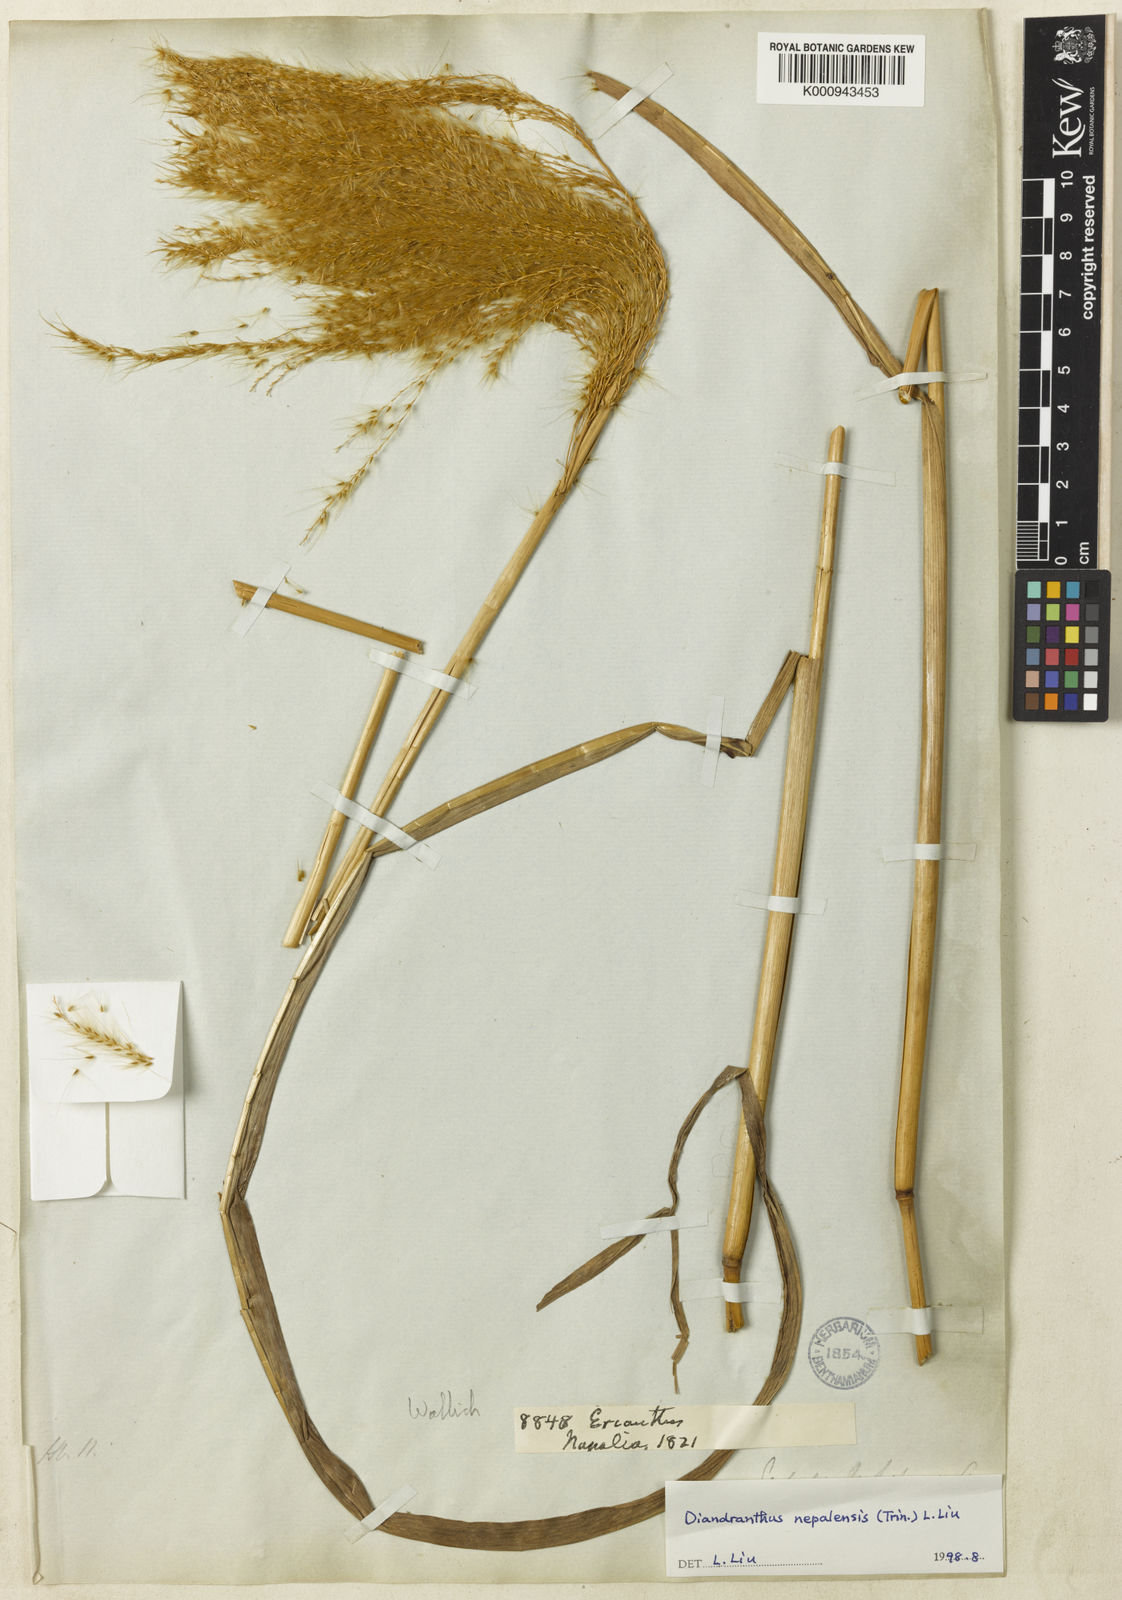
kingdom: Plantae
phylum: Tracheophyta
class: Liliopsida
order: Poales
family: Poaceae
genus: Miscanthus
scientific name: Miscanthus nepalensis
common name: Nepal silver grass
